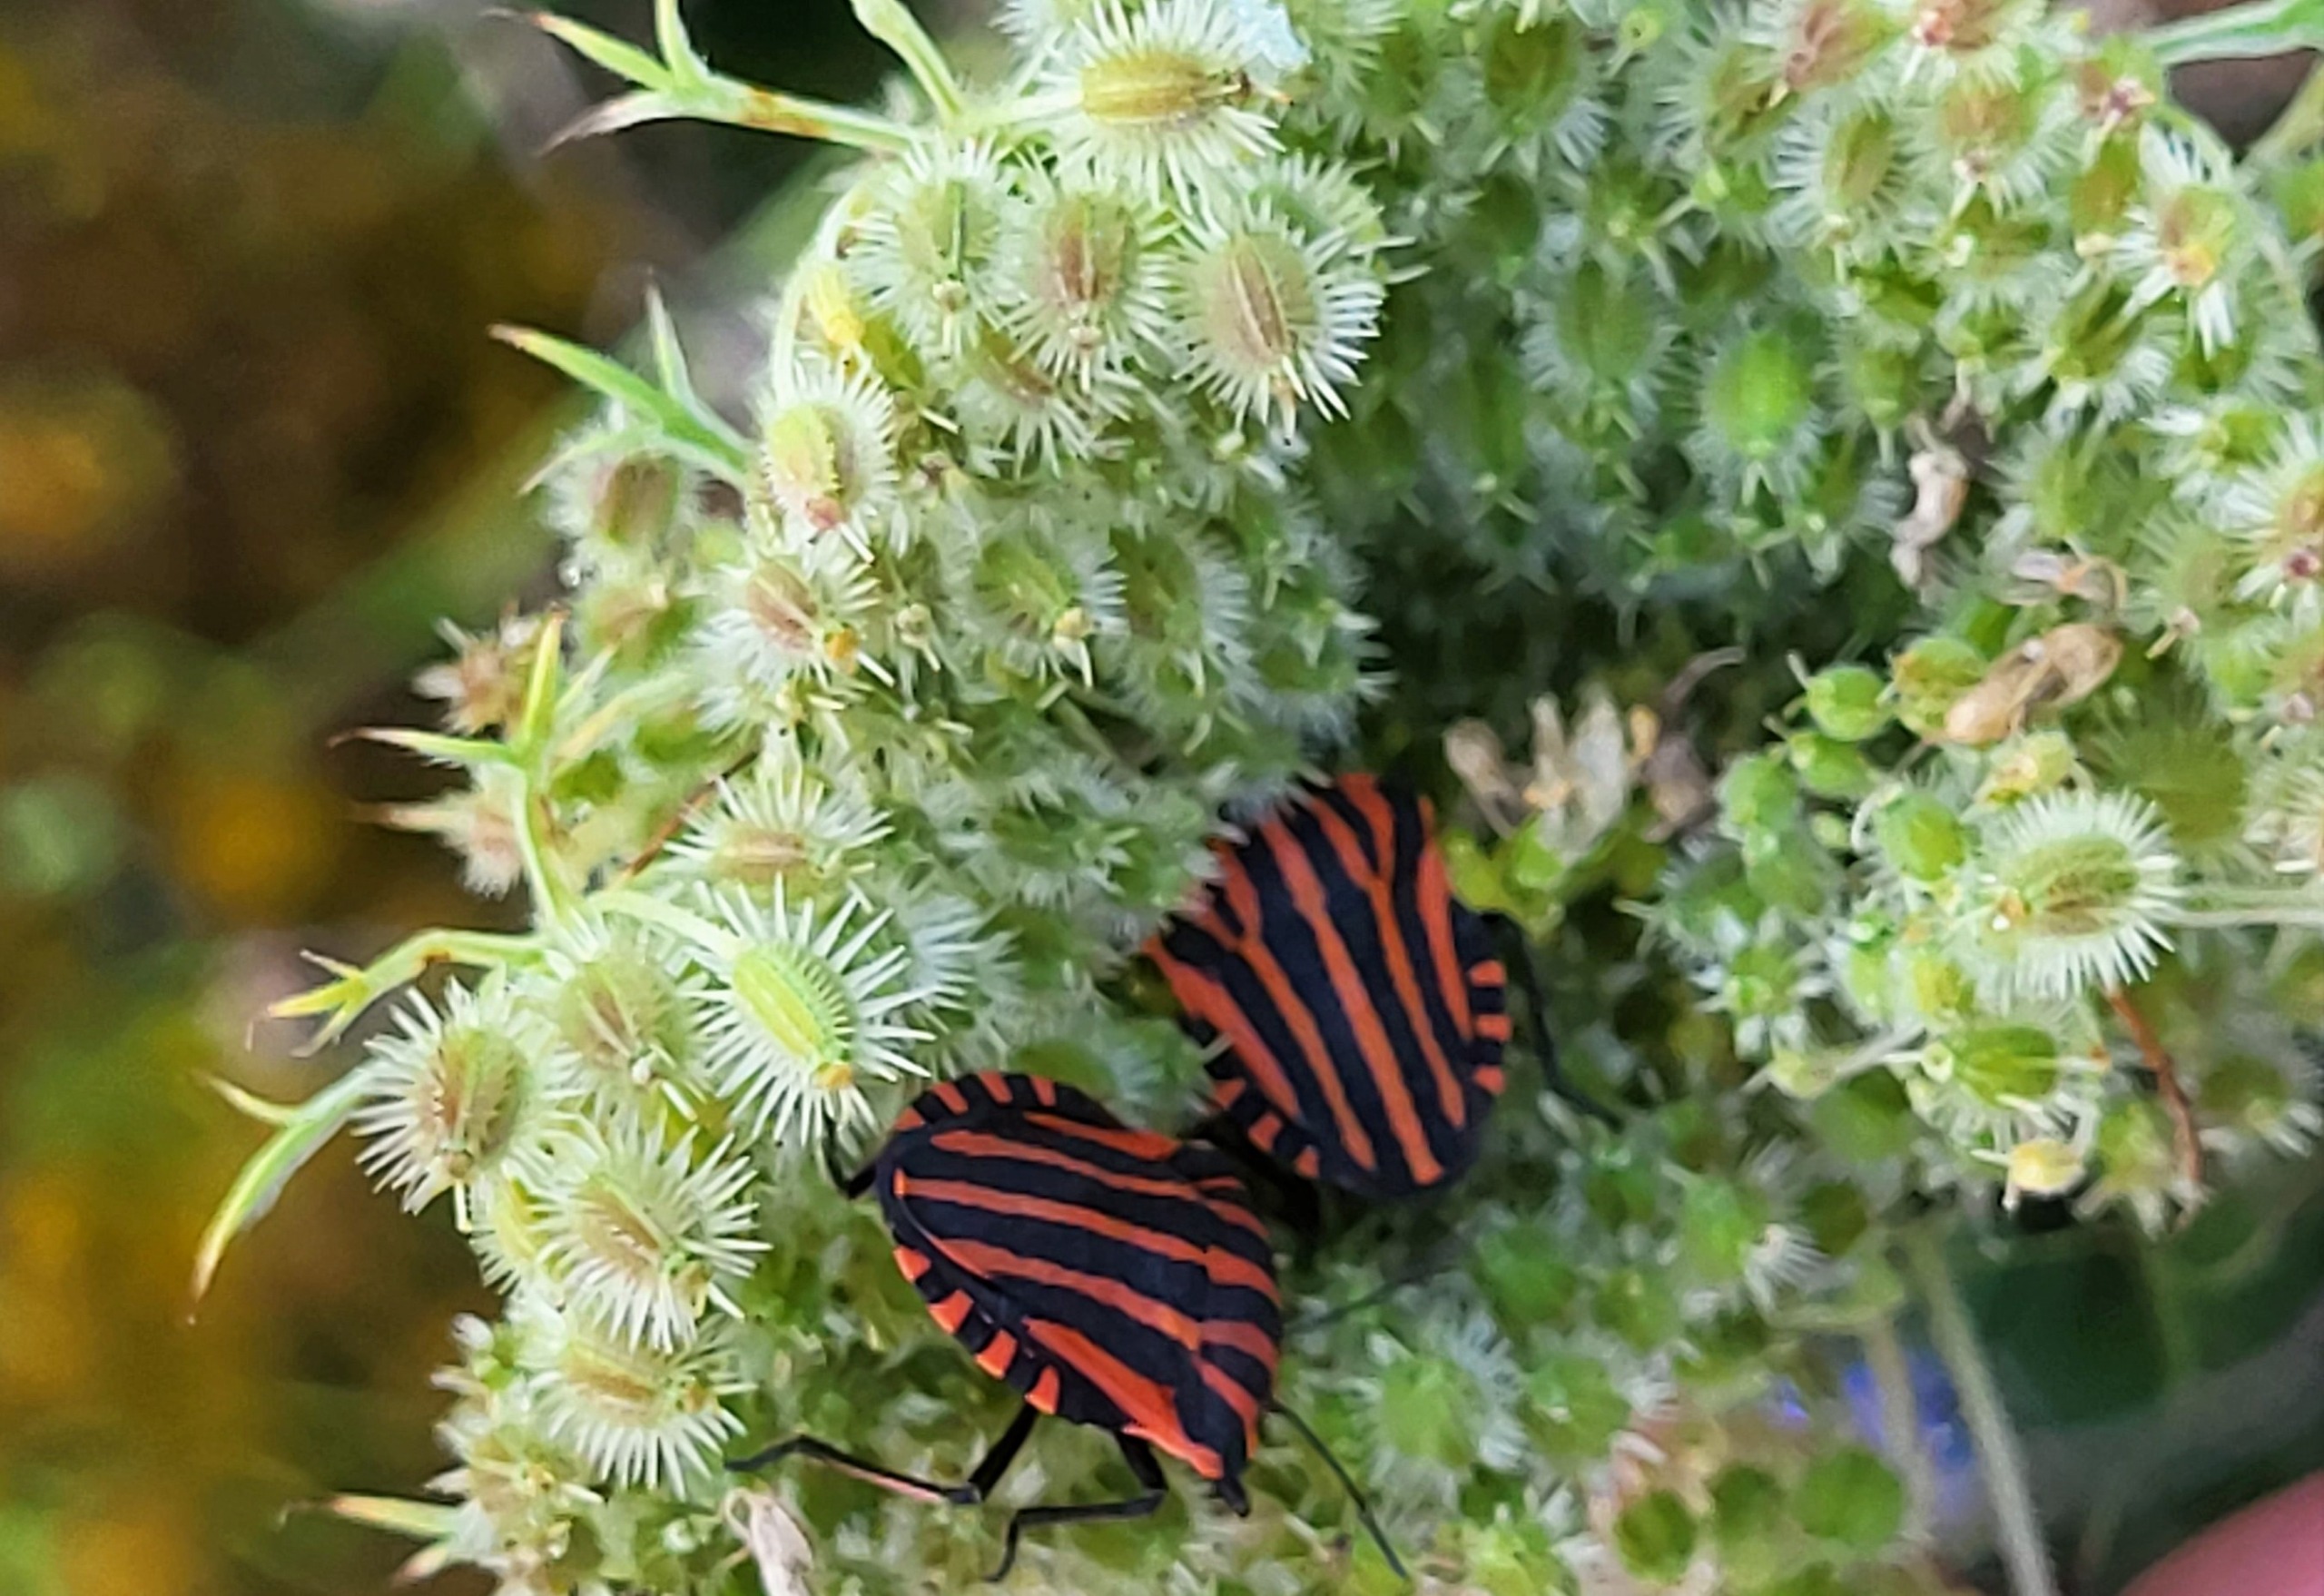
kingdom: Animalia
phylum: Arthropoda
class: Insecta
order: Hemiptera
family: Pentatomidae
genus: Graphosoma
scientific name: Graphosoma italicum
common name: Stribetæge
